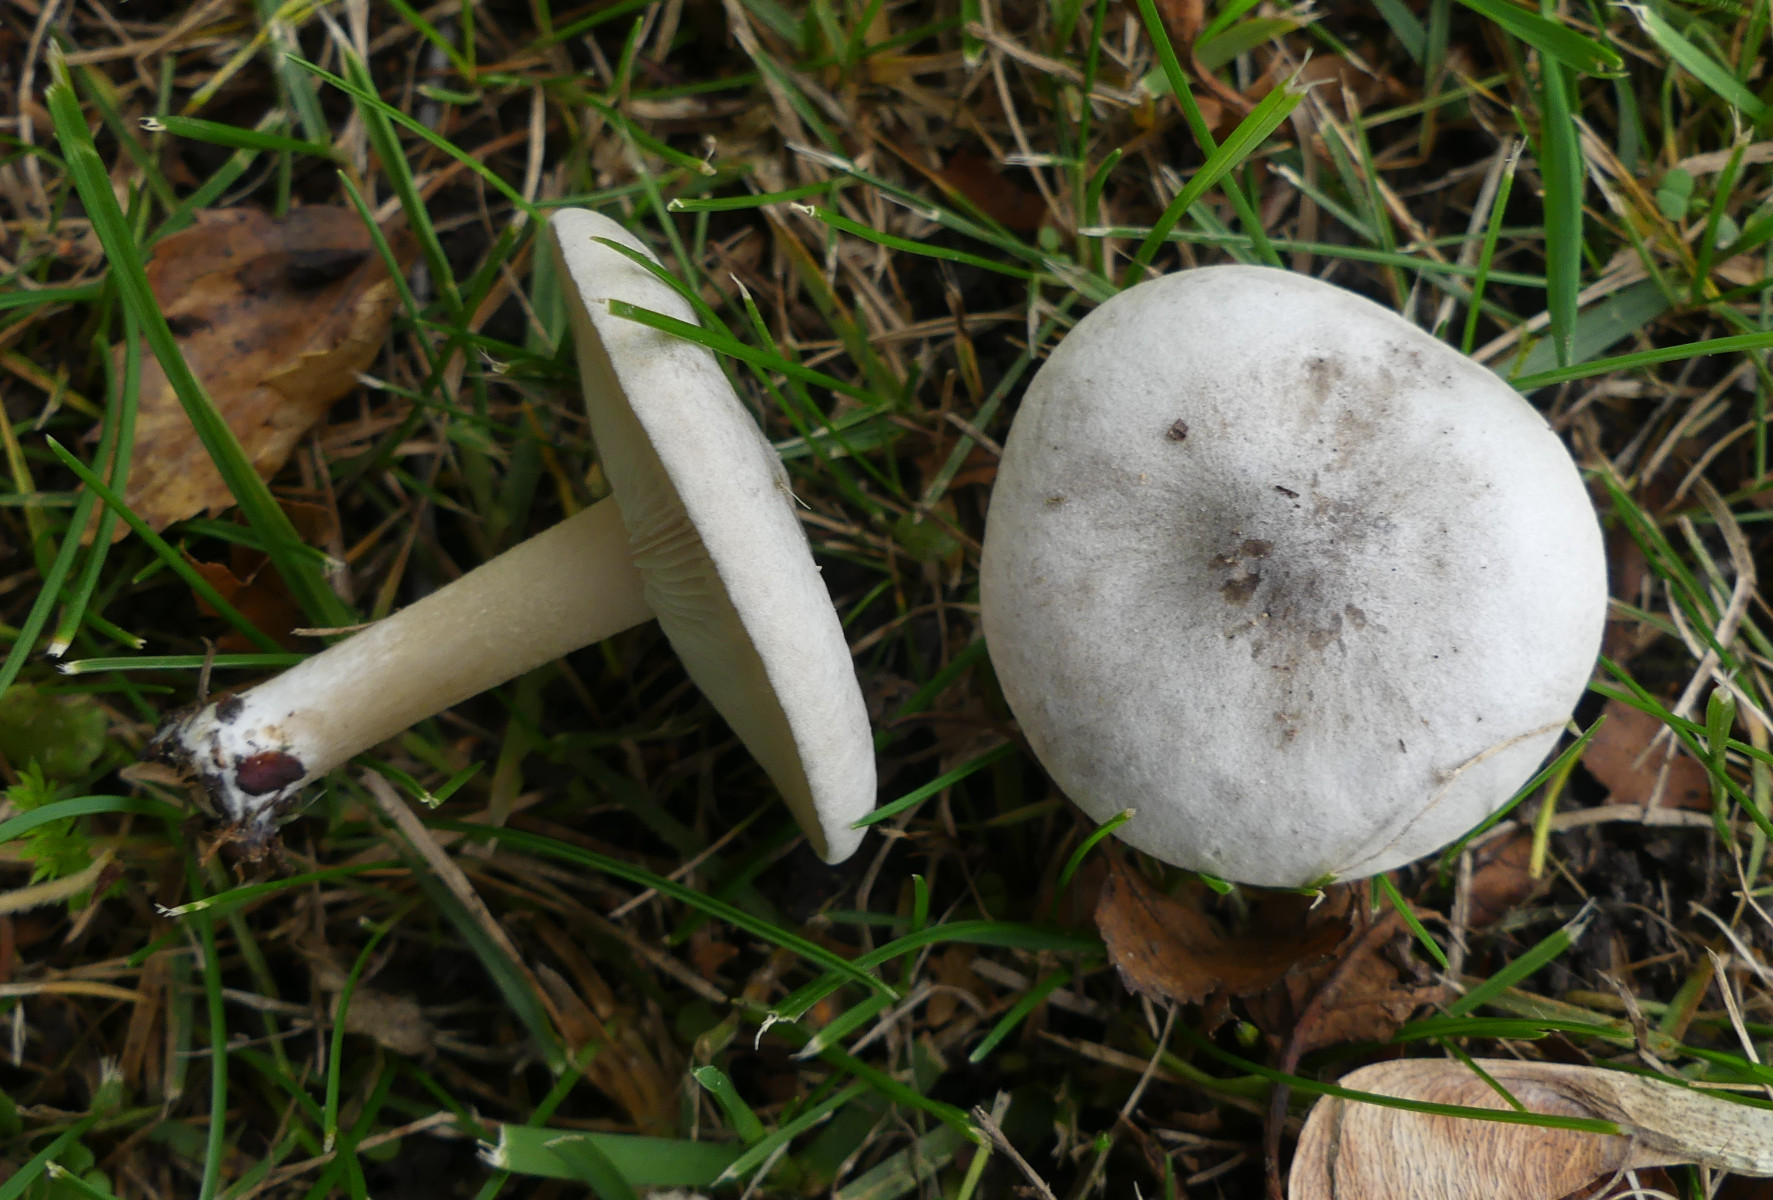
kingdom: Fungi
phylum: Basidiomycota
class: Agaricomycetes
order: Agaricales
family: Tricholomataceae
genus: Lepista
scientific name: Lepista panaeolus
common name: marmoreret hekseringshat
